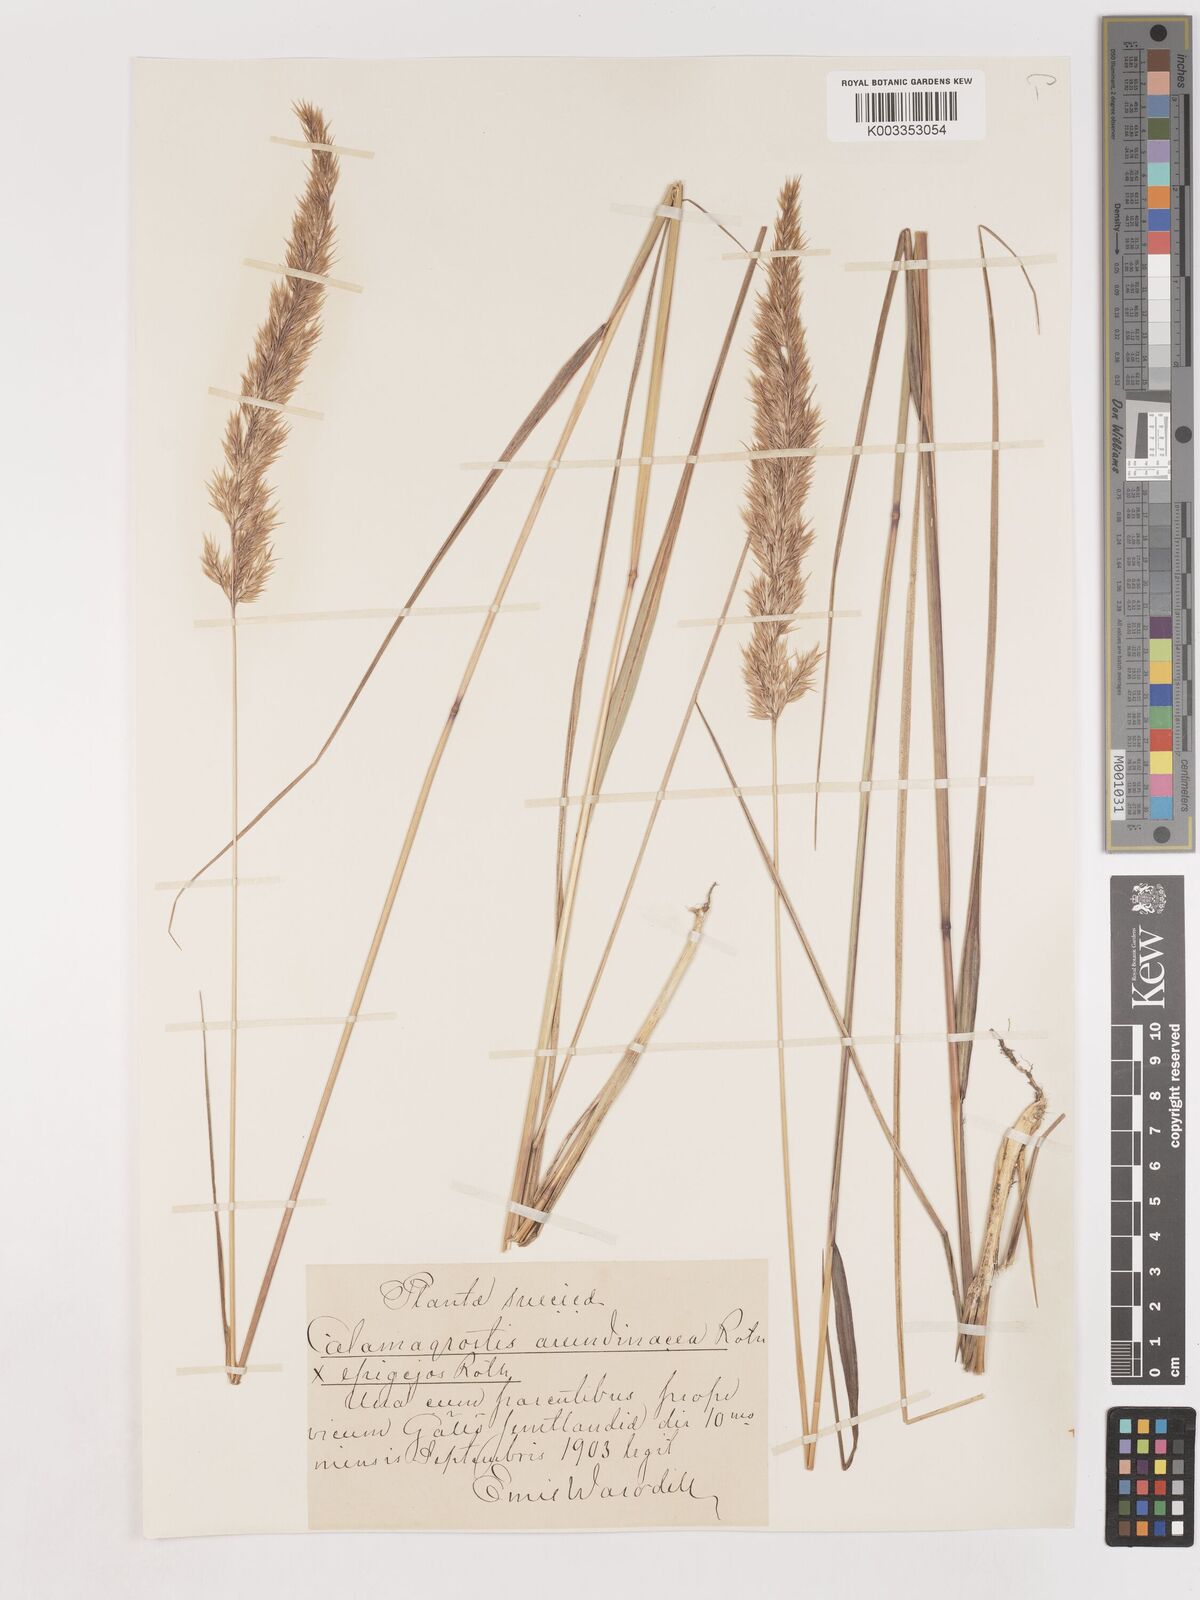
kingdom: Plantae
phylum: Tracheophyta
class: Liliopsida
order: Poales
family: Poaceae
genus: Calamagrostis
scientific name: Calamagrostis epigejos
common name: Wood small-reed
